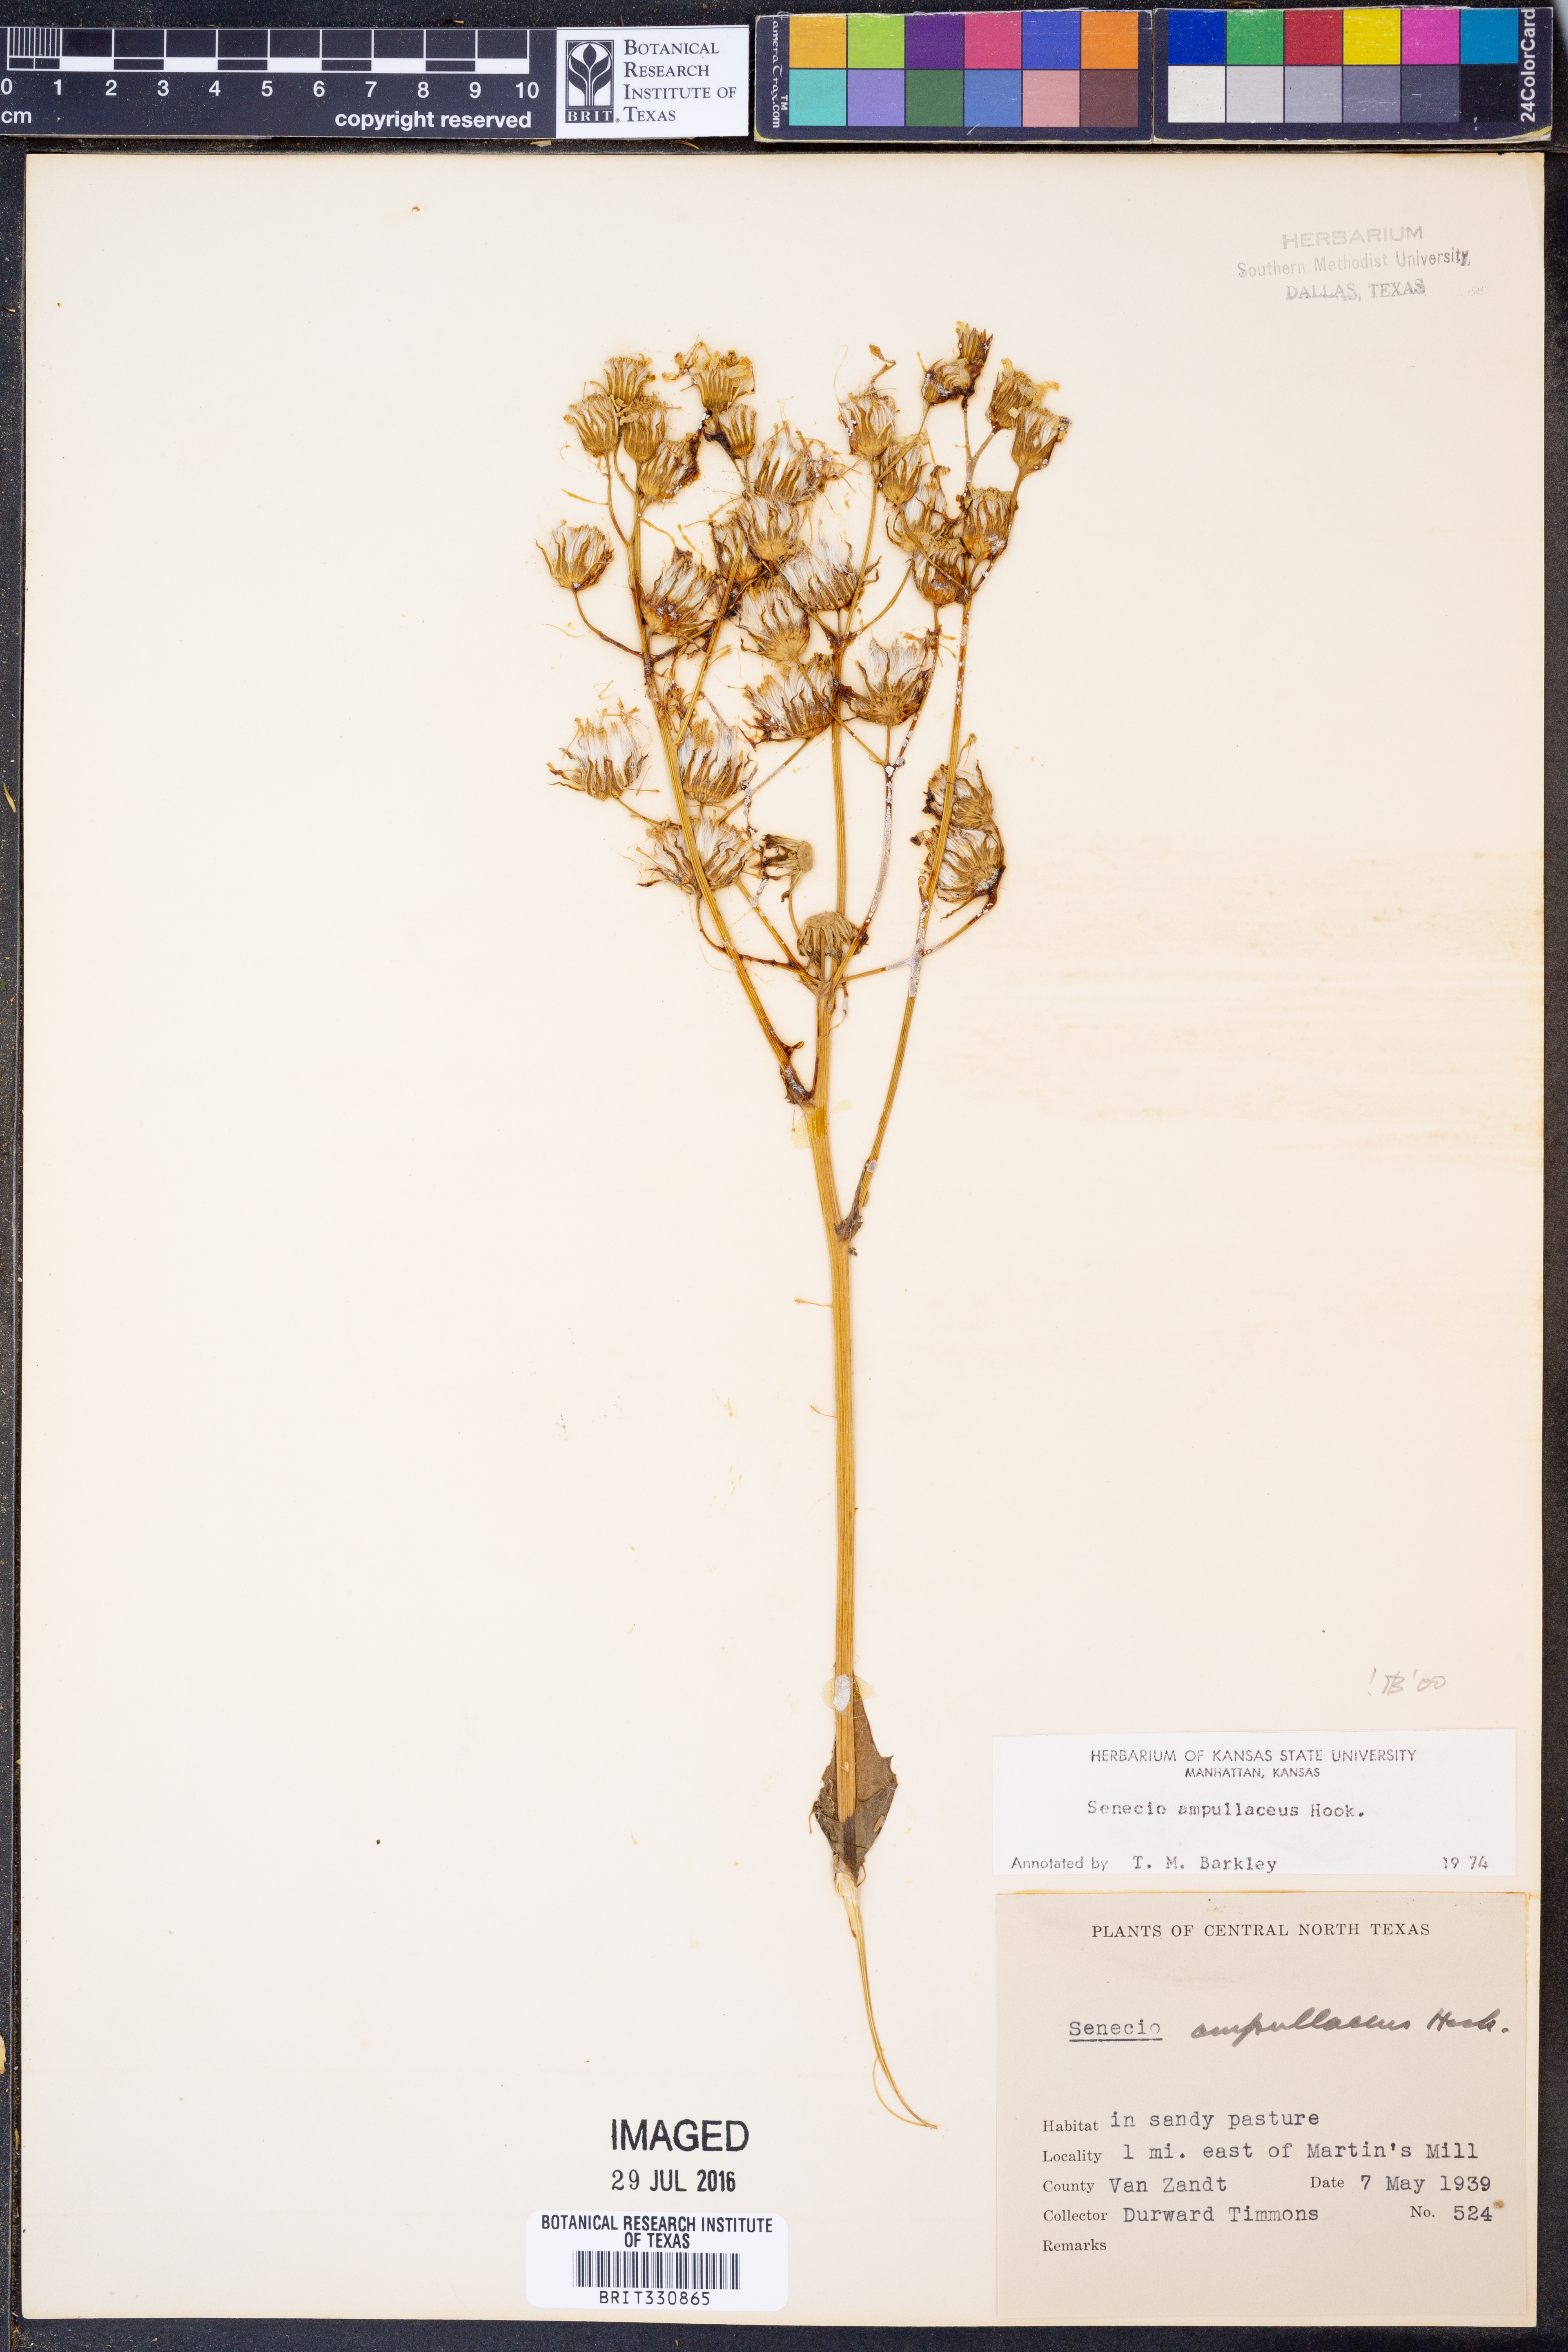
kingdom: Plantae
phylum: Tracheophyta
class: Magnoliopsida
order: Asterales
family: Asteraceae
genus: Senecio
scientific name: Senecio ampullaceus
